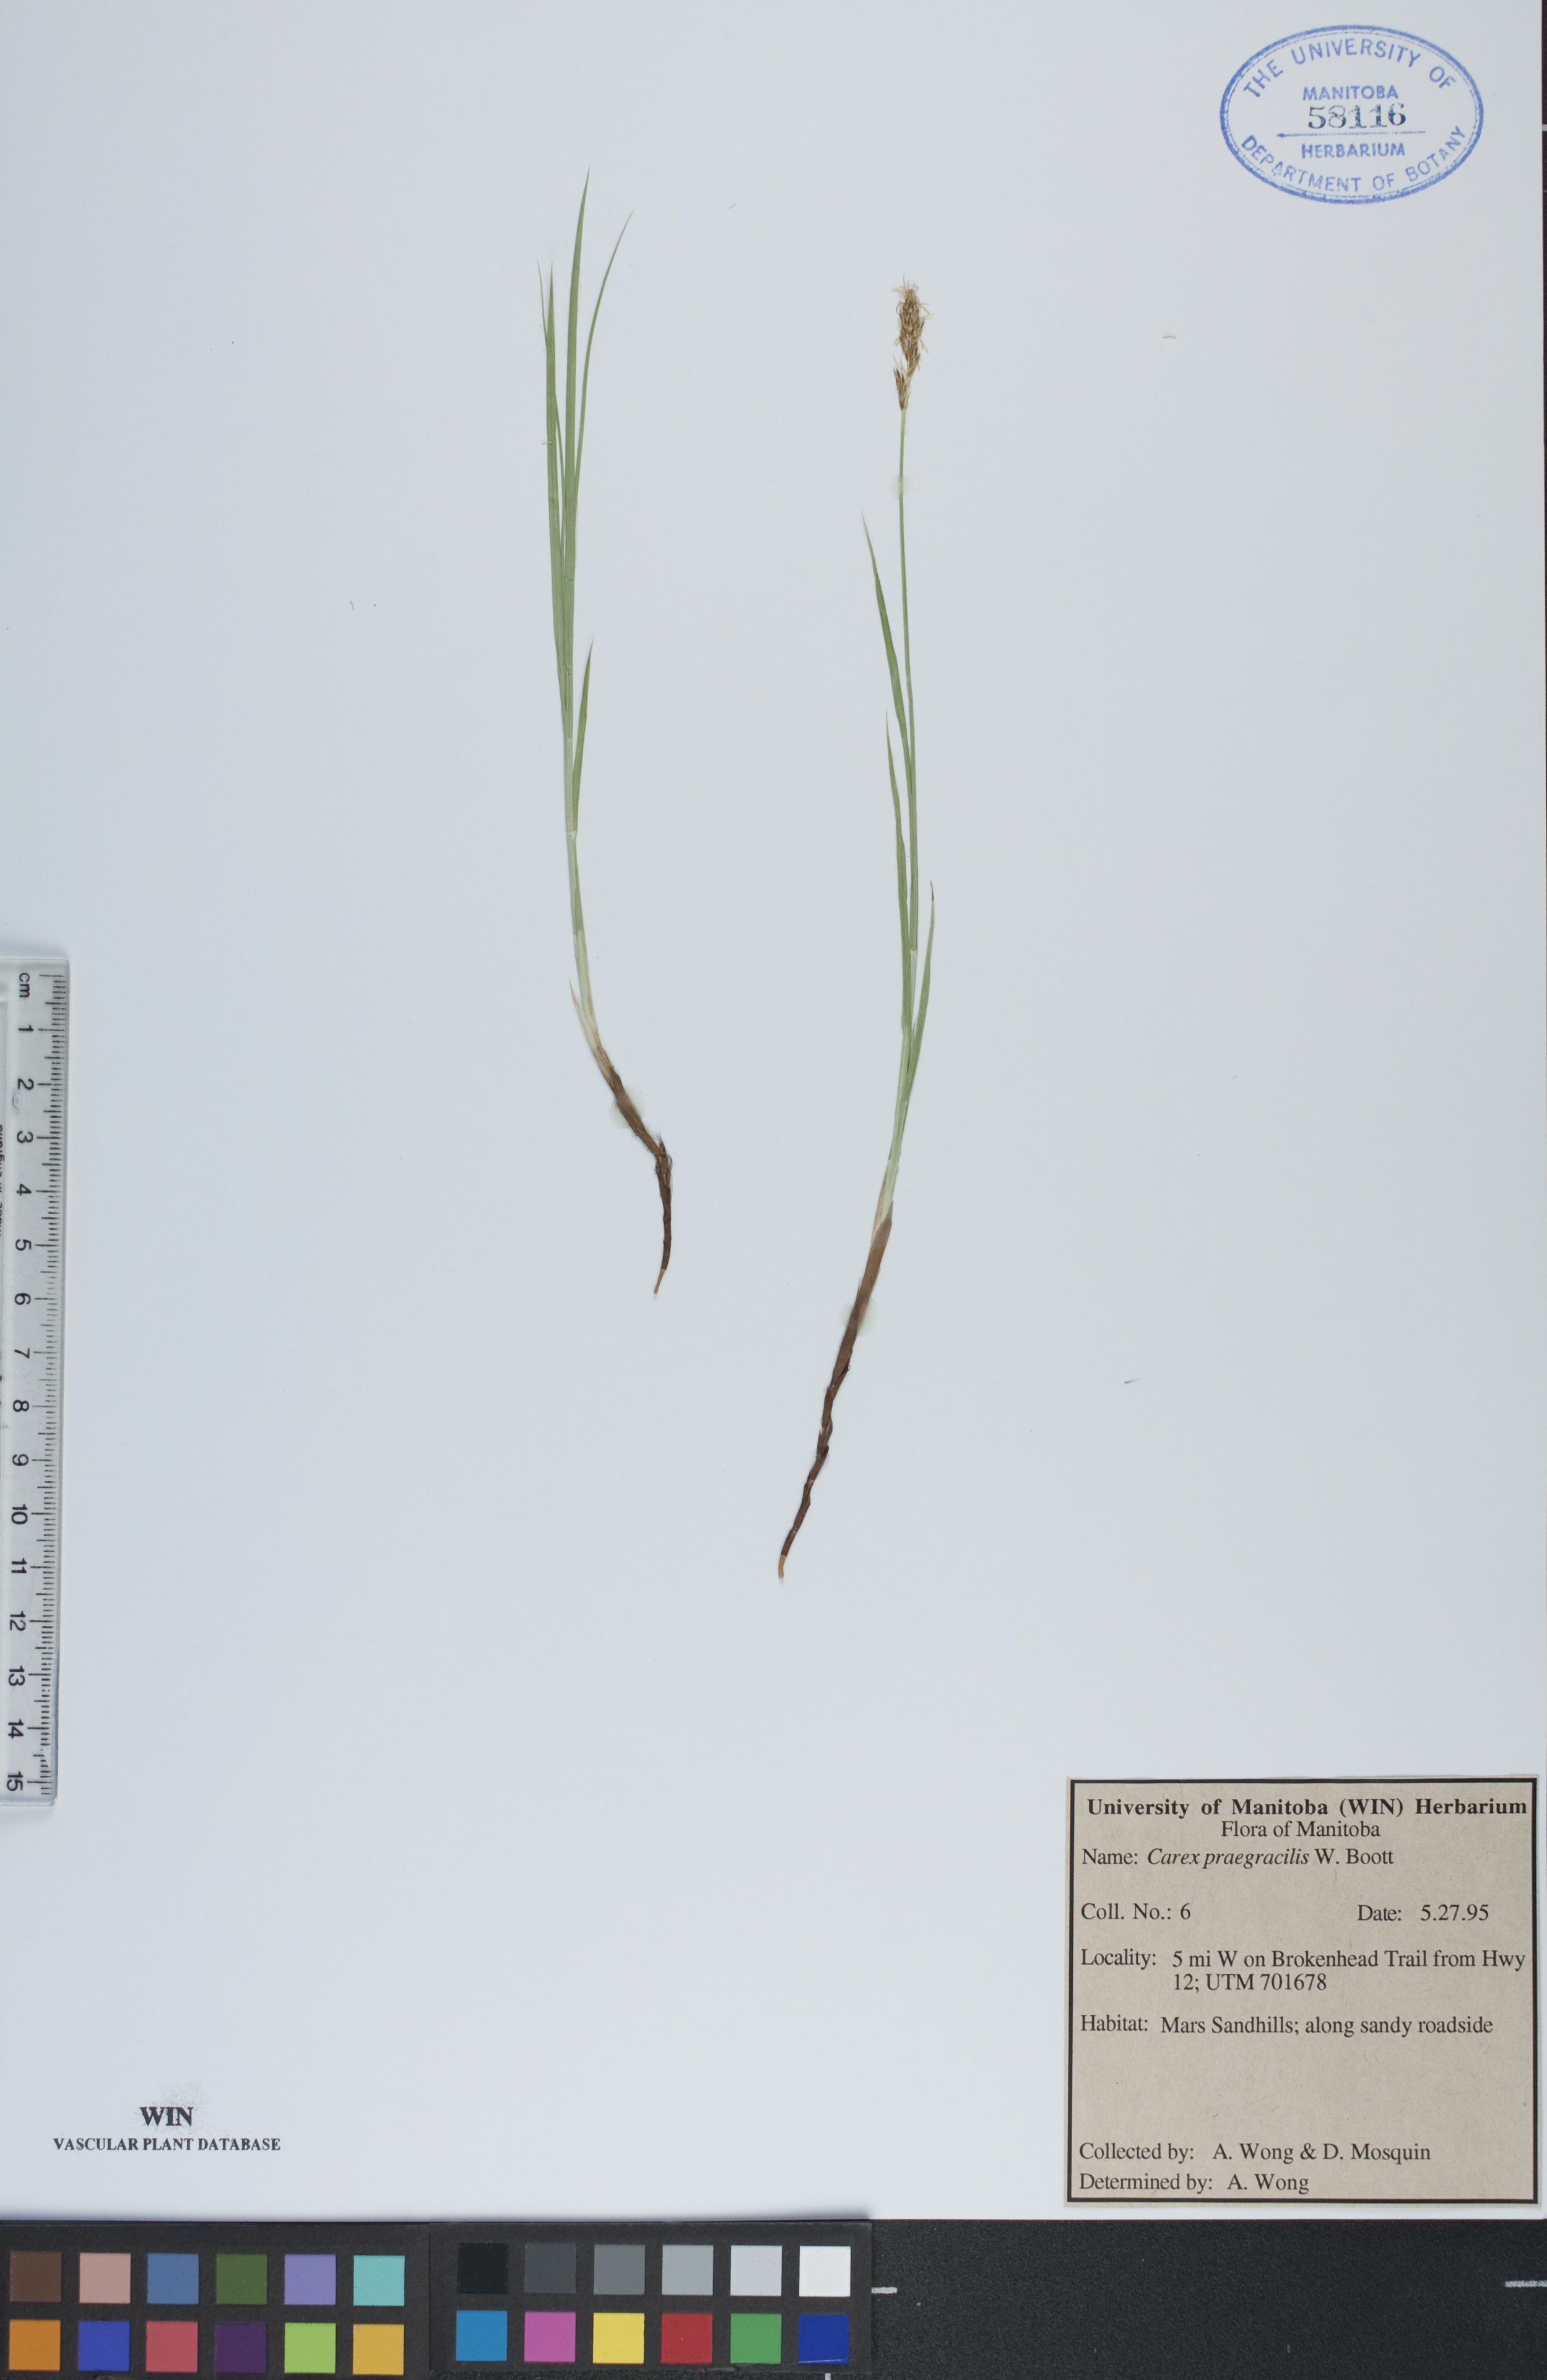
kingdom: Plantae
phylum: Tracheophyta
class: Liliopsida
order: Poales
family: Cyperaceae
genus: Carex
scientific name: Carex praegracilis
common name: Black creeper sedge
